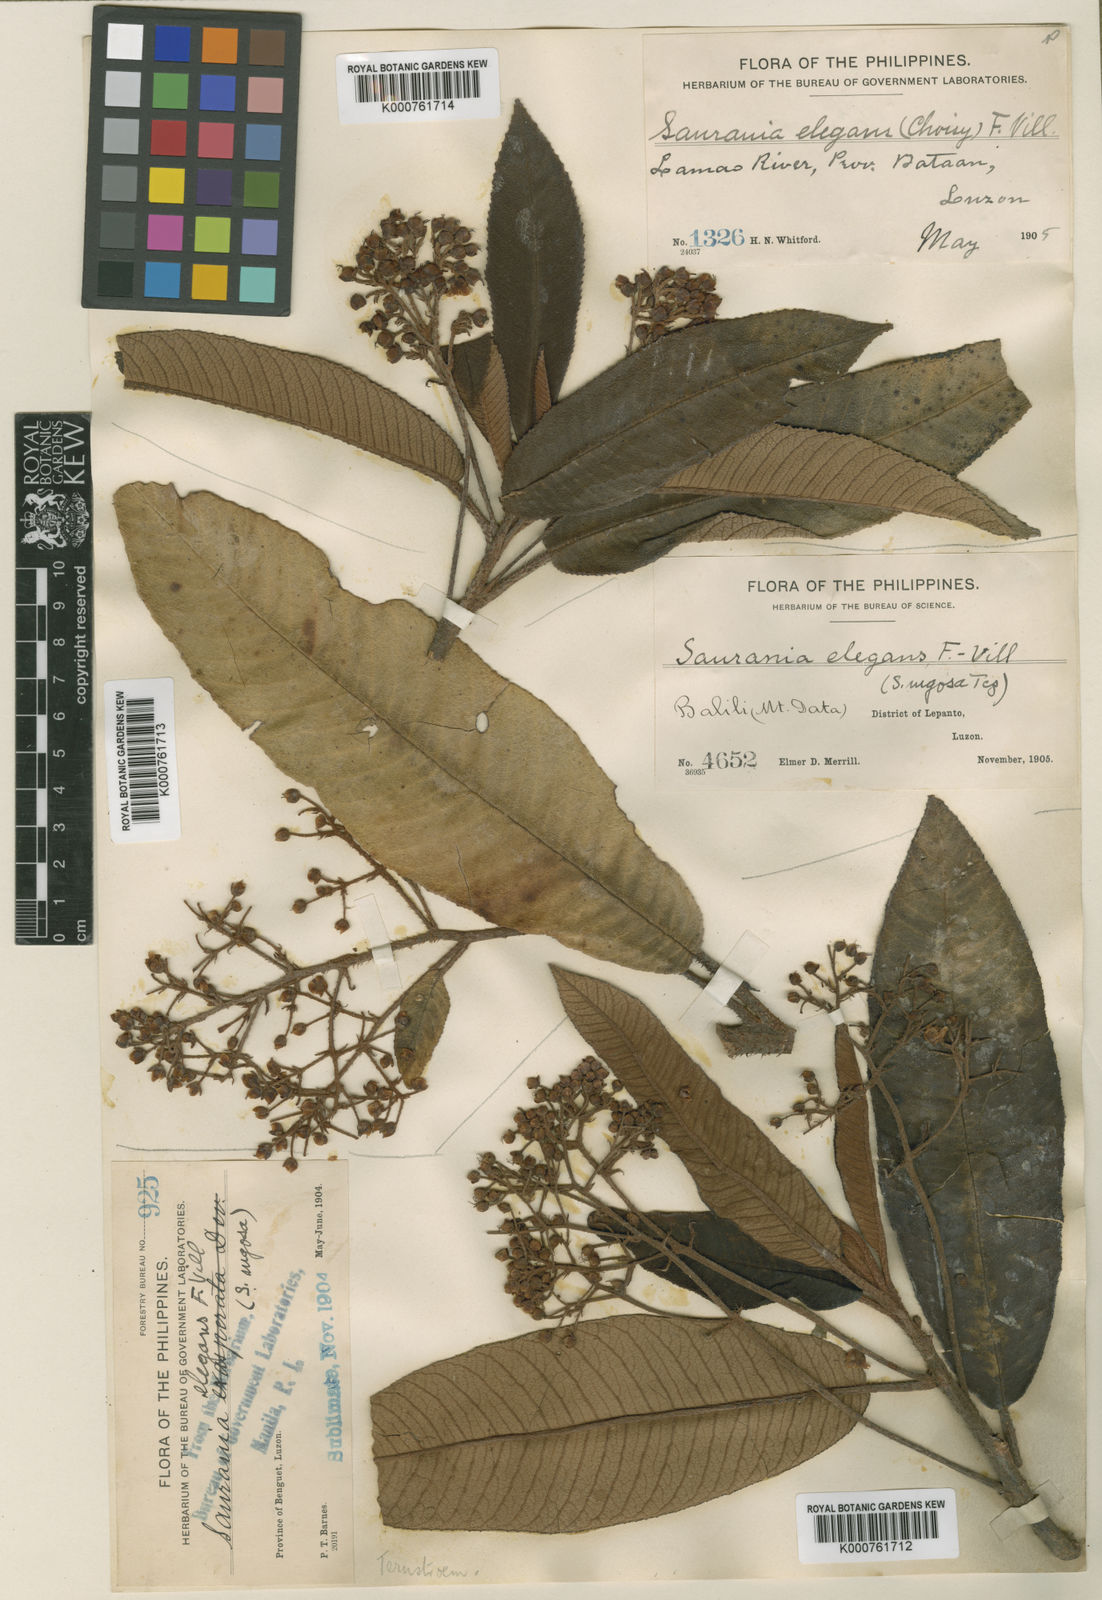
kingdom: Plantae
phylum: Tracheophyta
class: Magnoliopsida
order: Ericales
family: Actinidiaceae
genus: Saurauia
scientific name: Saurauia elegans
